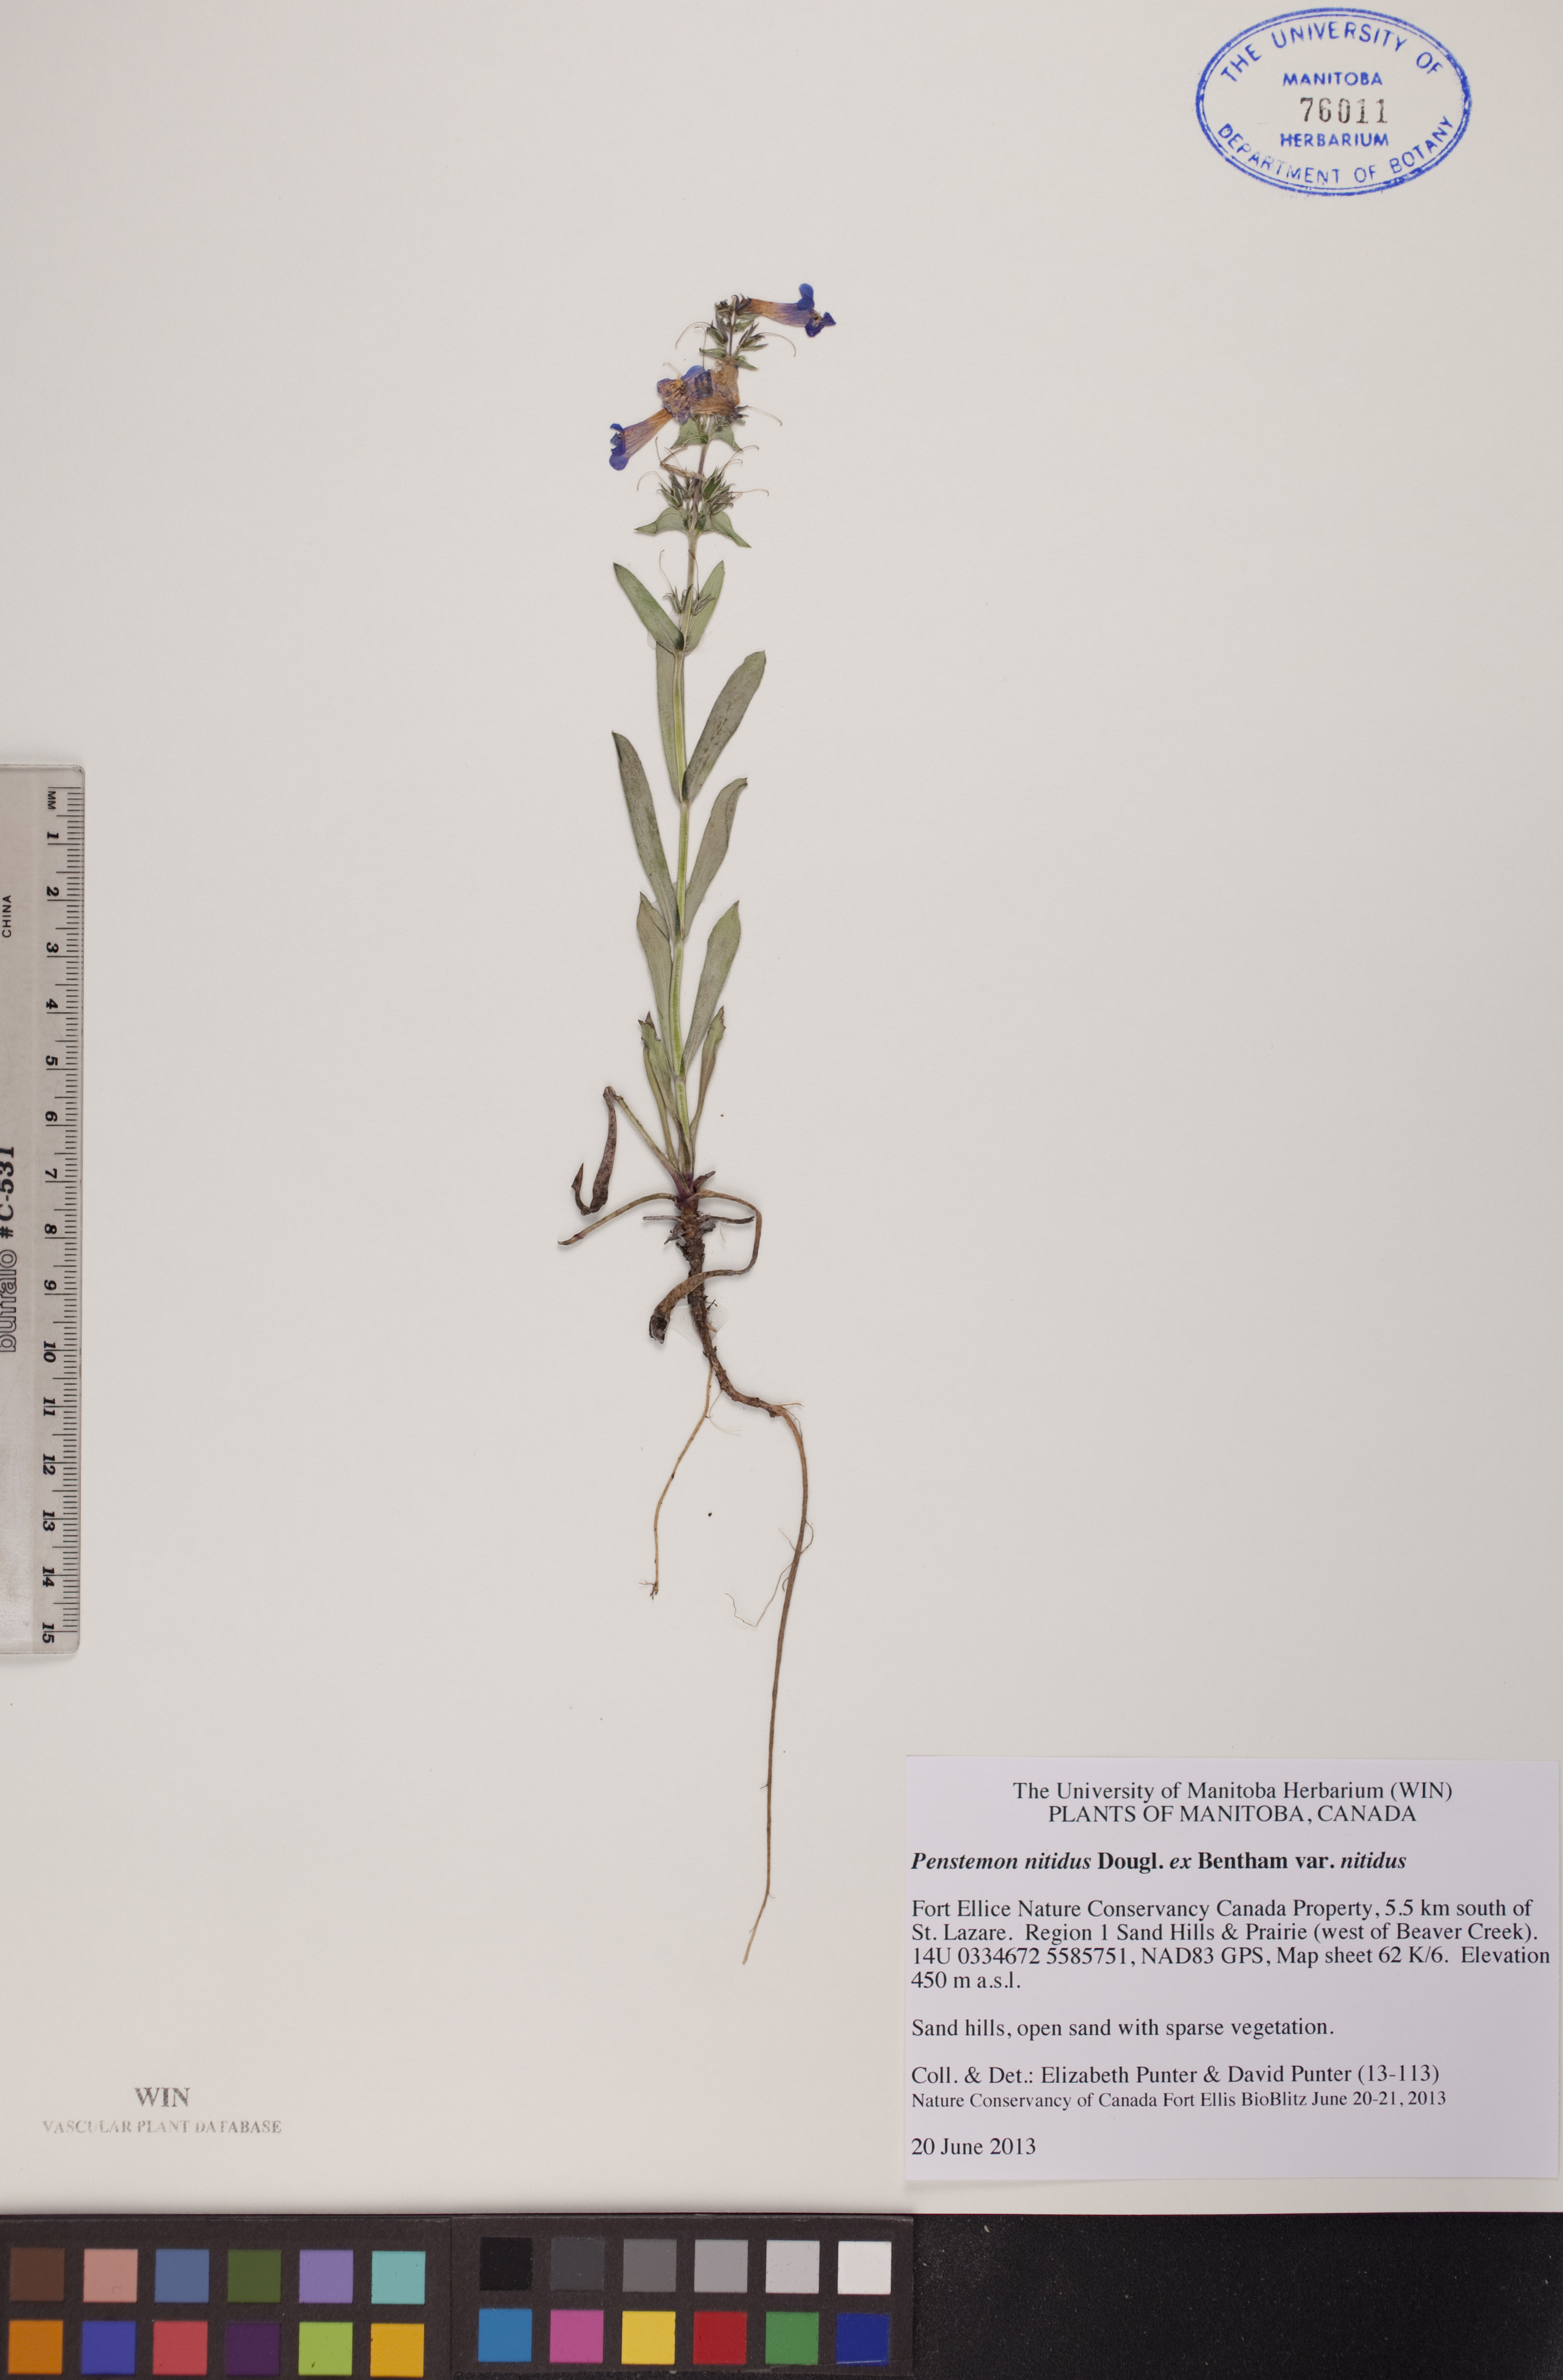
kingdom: Plantae
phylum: Tracheophyta
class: Magnoliopsida
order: Lamiales
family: Plantaginaceae
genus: Penstemon
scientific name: Penstemon nitidus
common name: Shining penstemon
